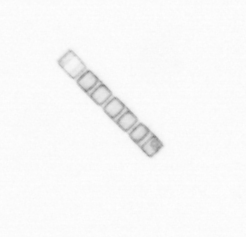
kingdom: Chromista
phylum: Ochrophyta
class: Bacillariophyceae
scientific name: Bacillariophyceae
